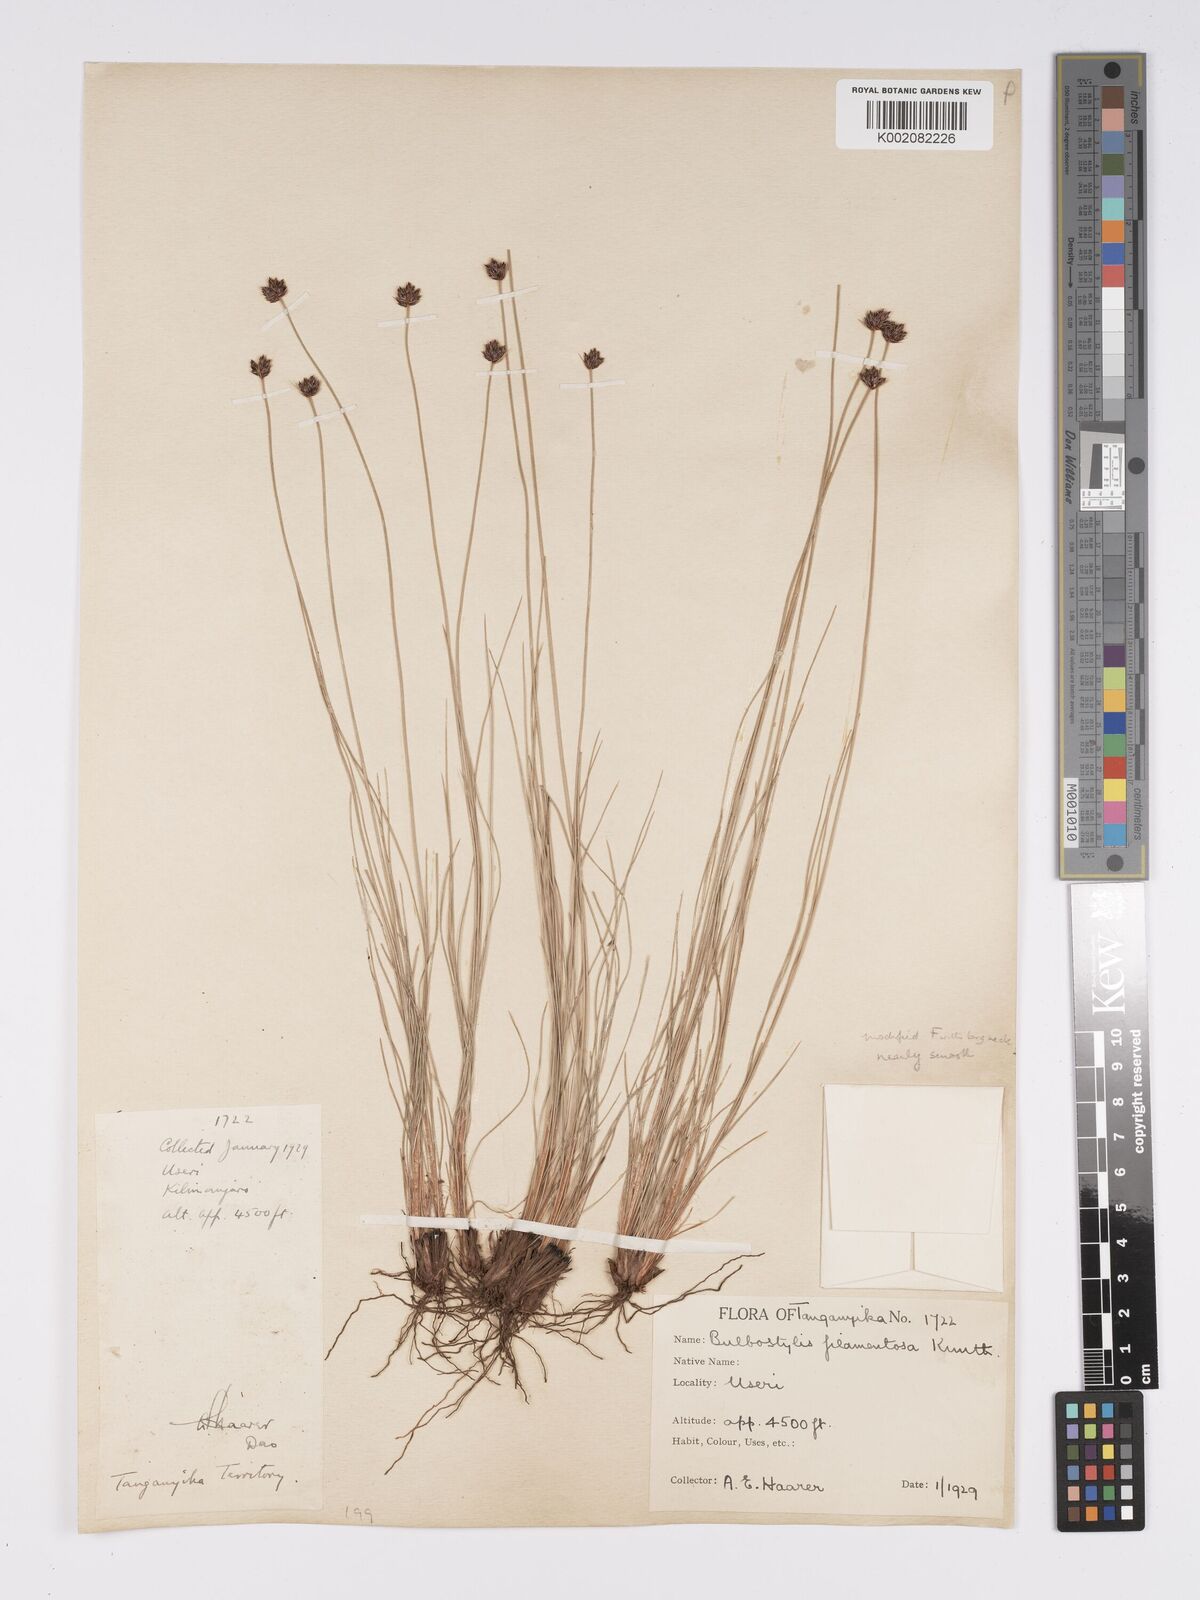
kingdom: Plantae
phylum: Tracheophyta
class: Liliopsida
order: Poales
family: Cyperaceae
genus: Bulbostylis
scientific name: Bulbostylis scabricaulis
